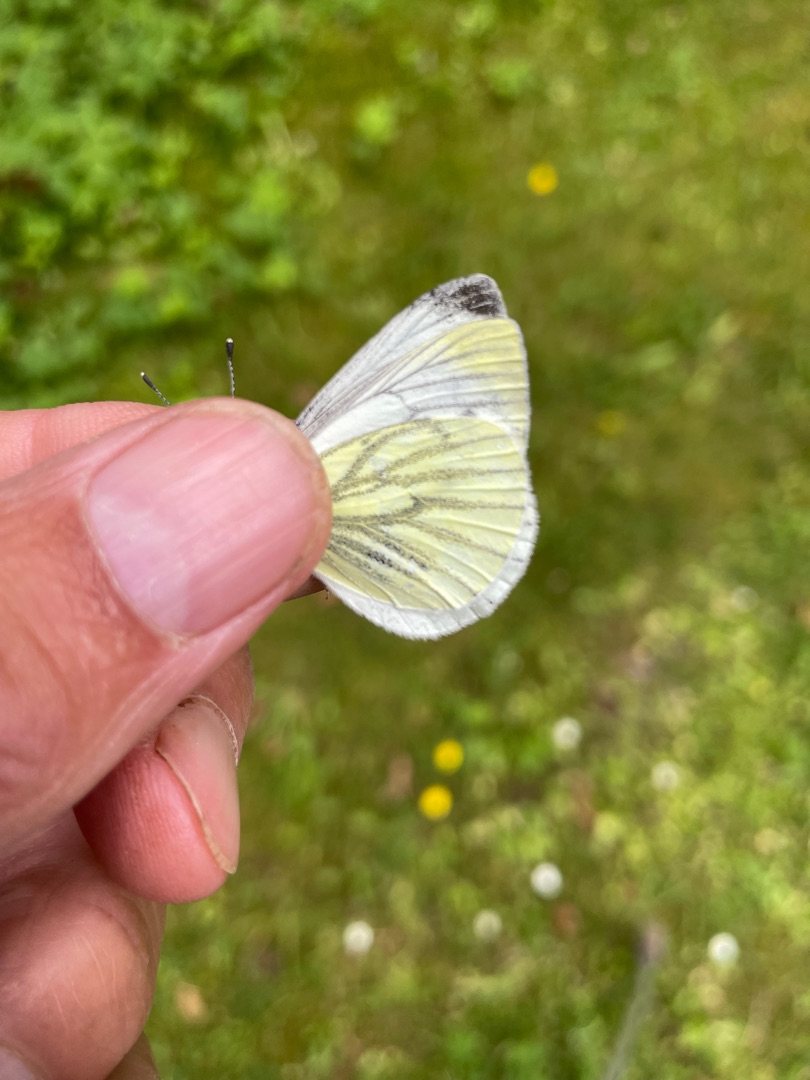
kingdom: Animalia
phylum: Arthropoda
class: Insecta
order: Lepidoptera
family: Pieridae
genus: Pieris
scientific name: Pieris napi
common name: Grønåret kålsommerfugl
